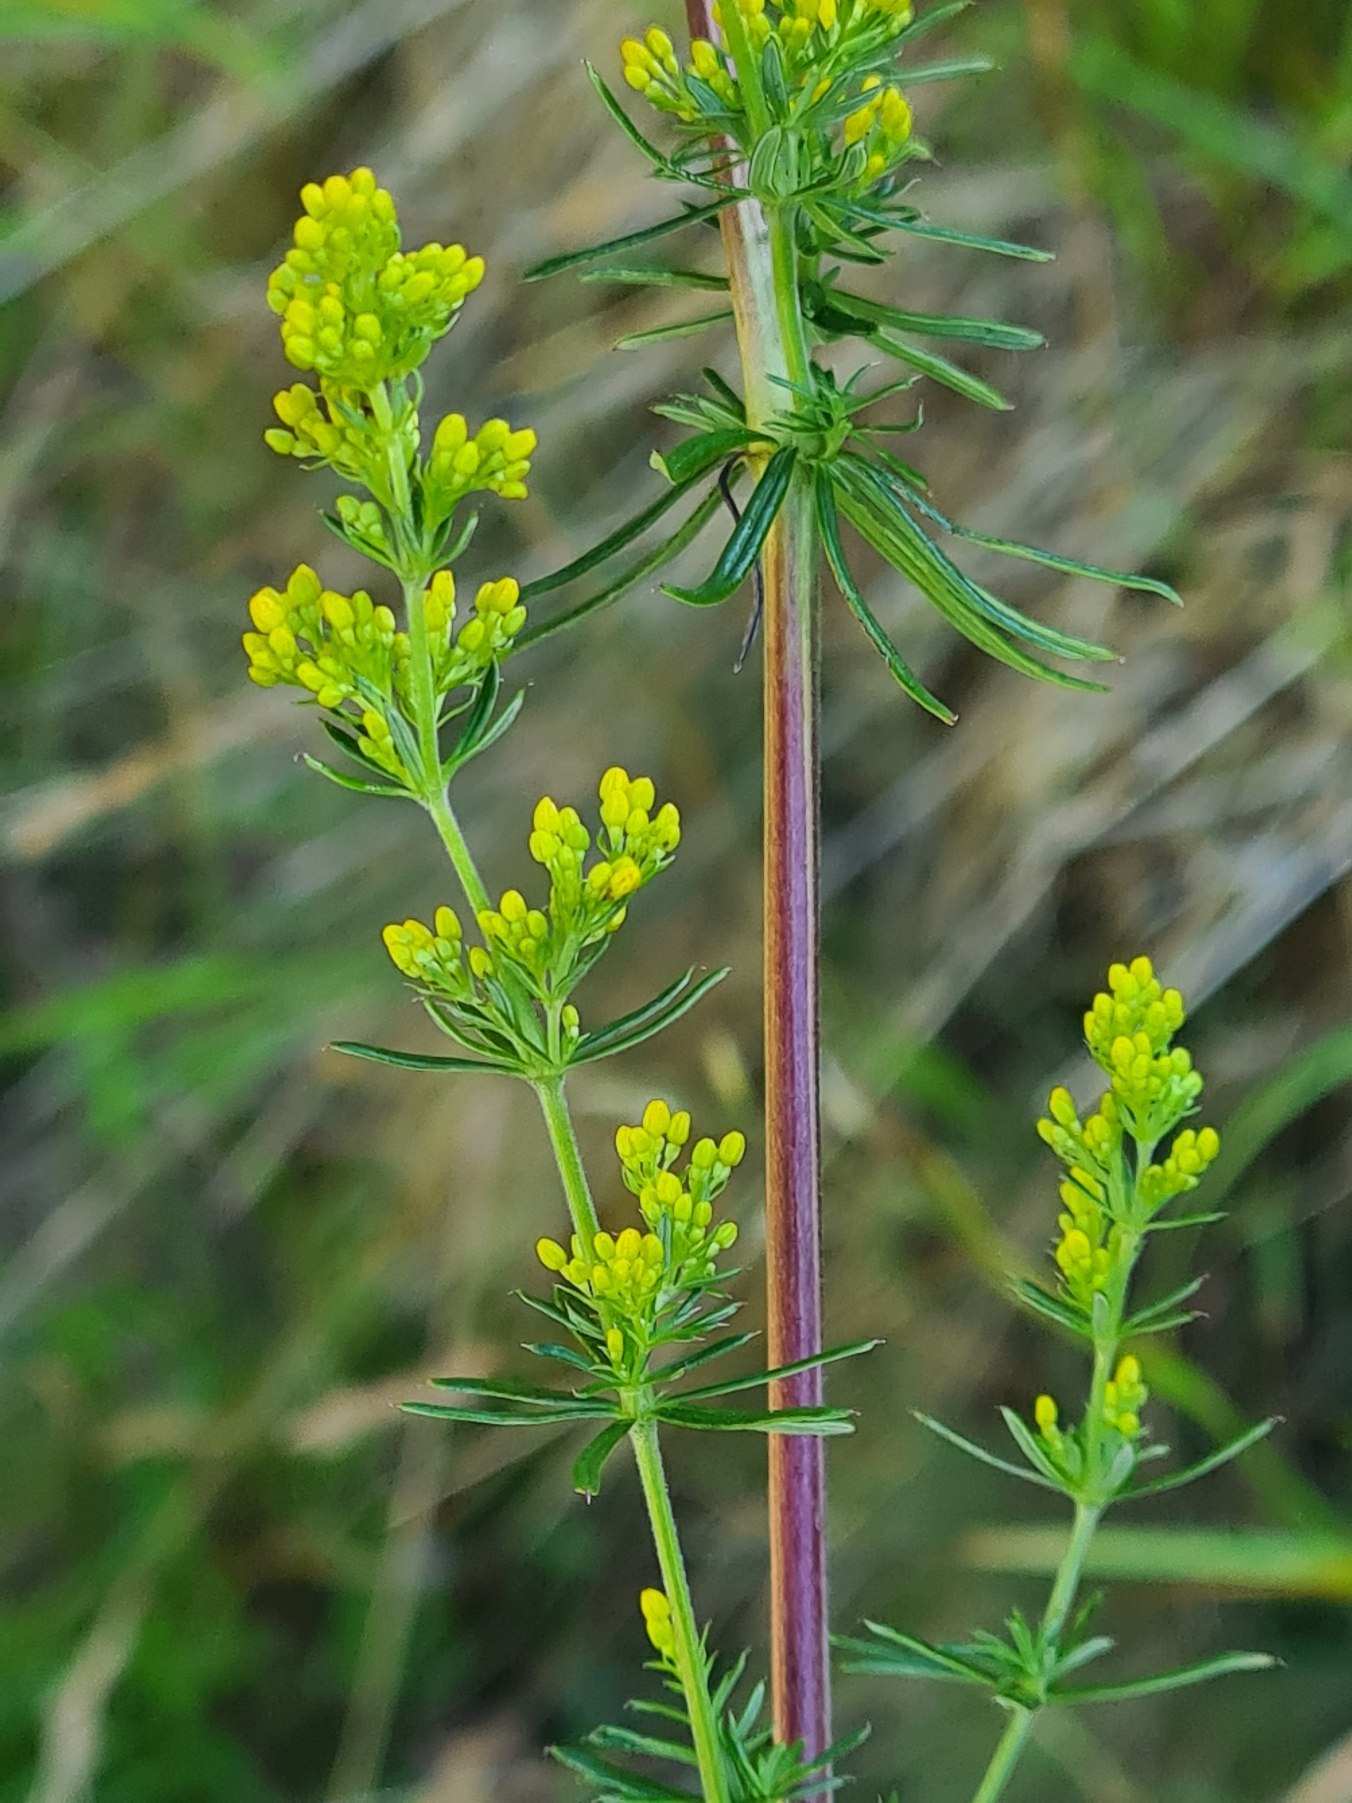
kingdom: Plantae
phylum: Tracheophyta
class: Magnoliopsida
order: Gentianales
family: Rubiaceae
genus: Galium
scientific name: Galium verum
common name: Gul snerre
